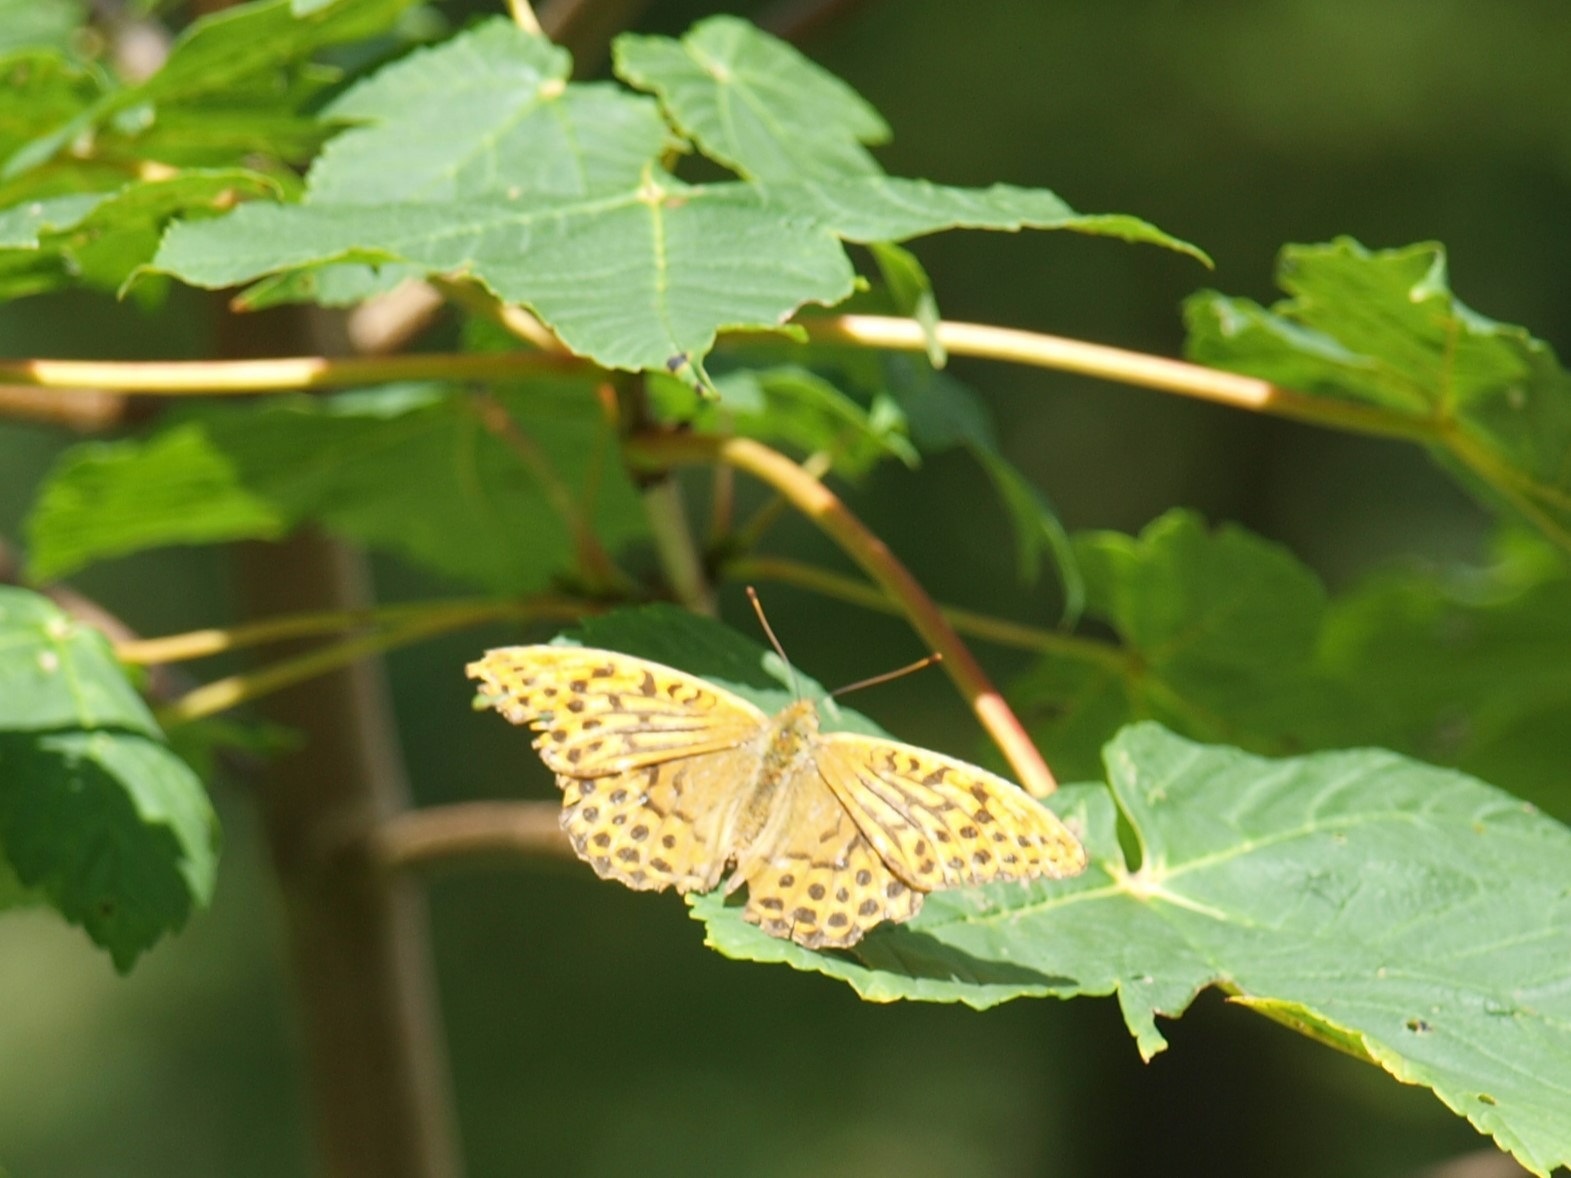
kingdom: Animalia
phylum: Arthropoda
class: Insecta
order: Lepidoptera
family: Nymphalidae
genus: Argynnis
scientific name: Argynnis paphia
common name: Kejserkåbe
